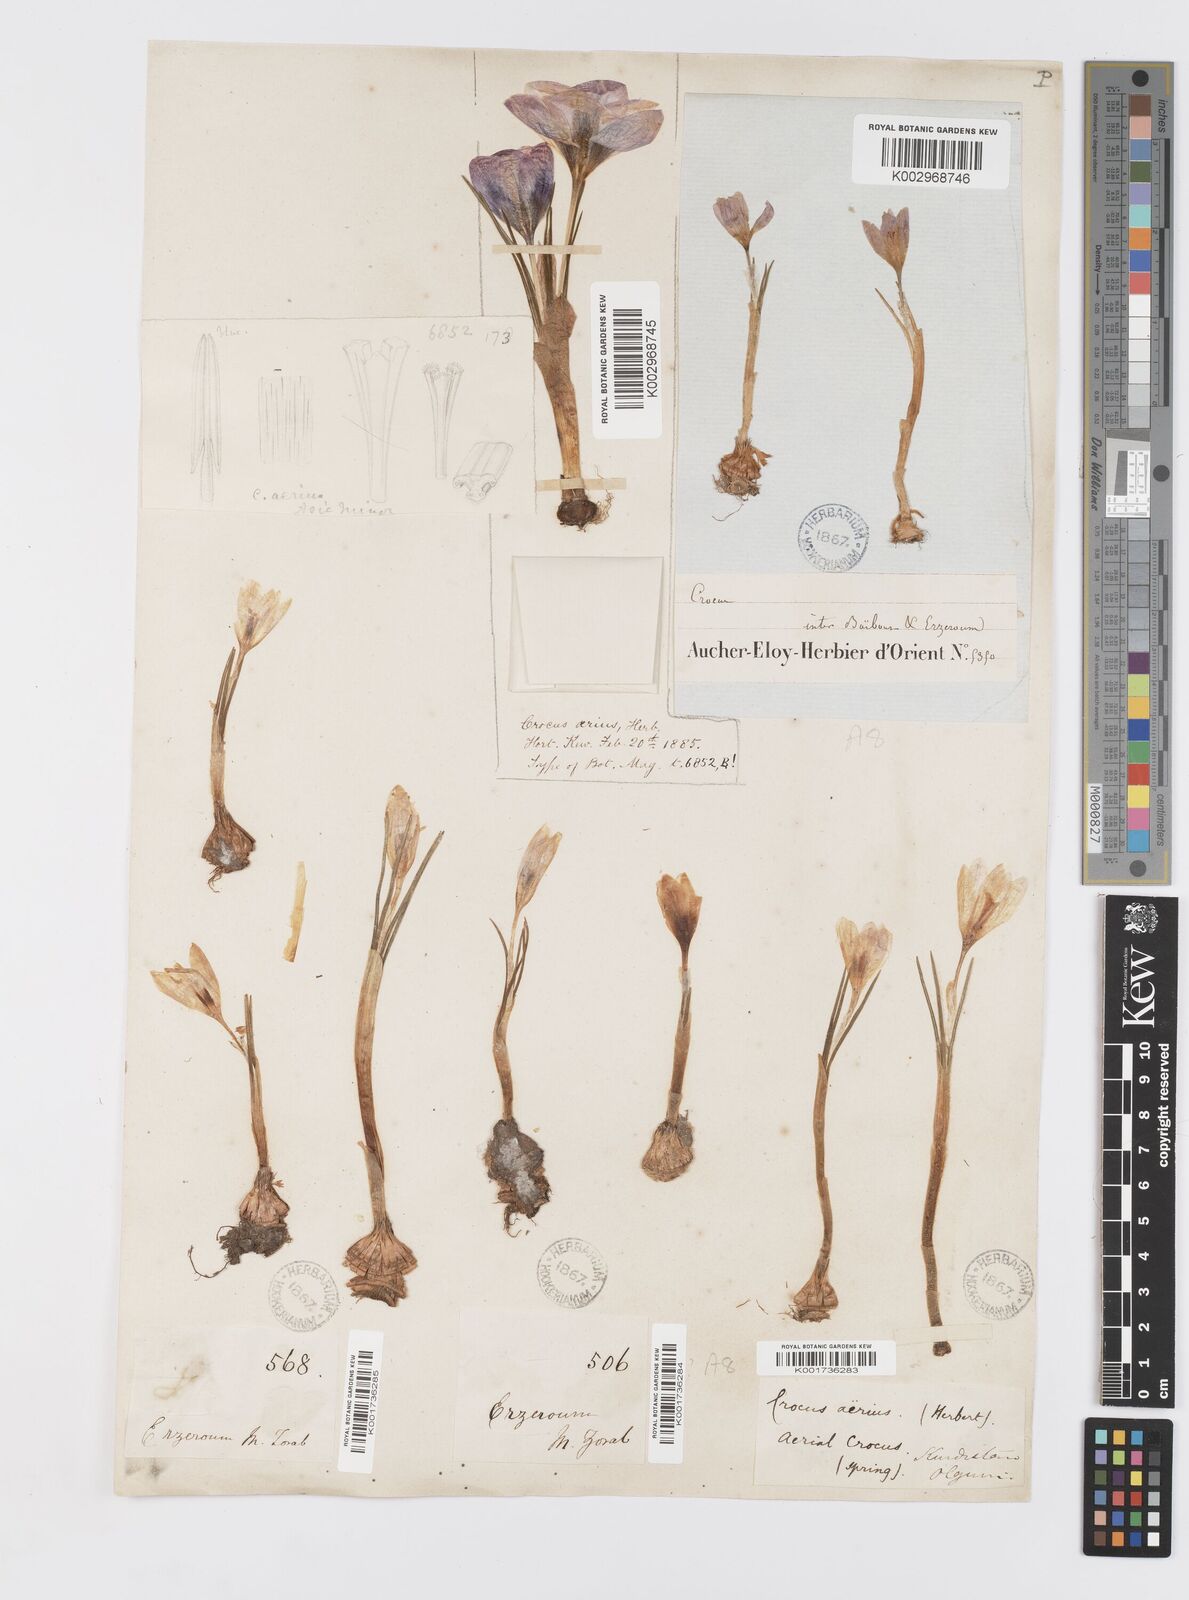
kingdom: Plantae
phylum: Tracheophyta
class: Liliopsida
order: Asparagales
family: Iridaceae
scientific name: Iridaceae
